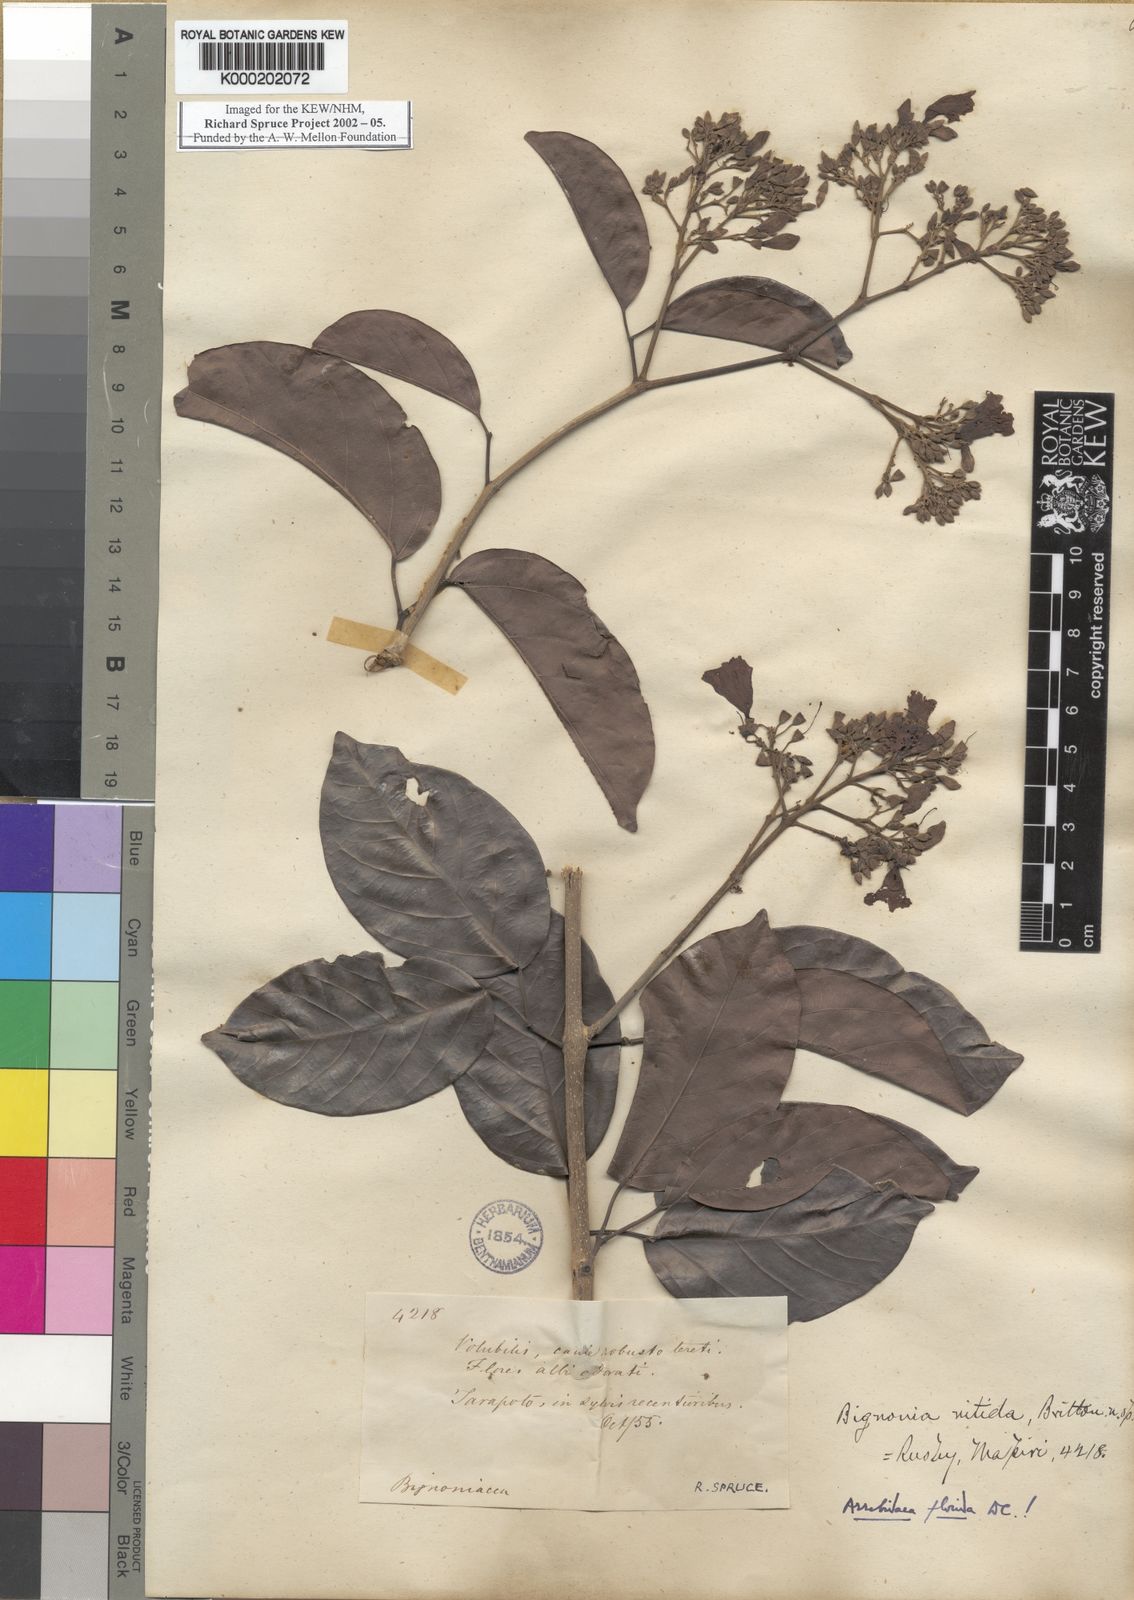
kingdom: Plantae
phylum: Tracheophyta
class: Magnoliopsida
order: Lamiales
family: Bignoniaceae
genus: Fridericia
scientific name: Fridericia florida
